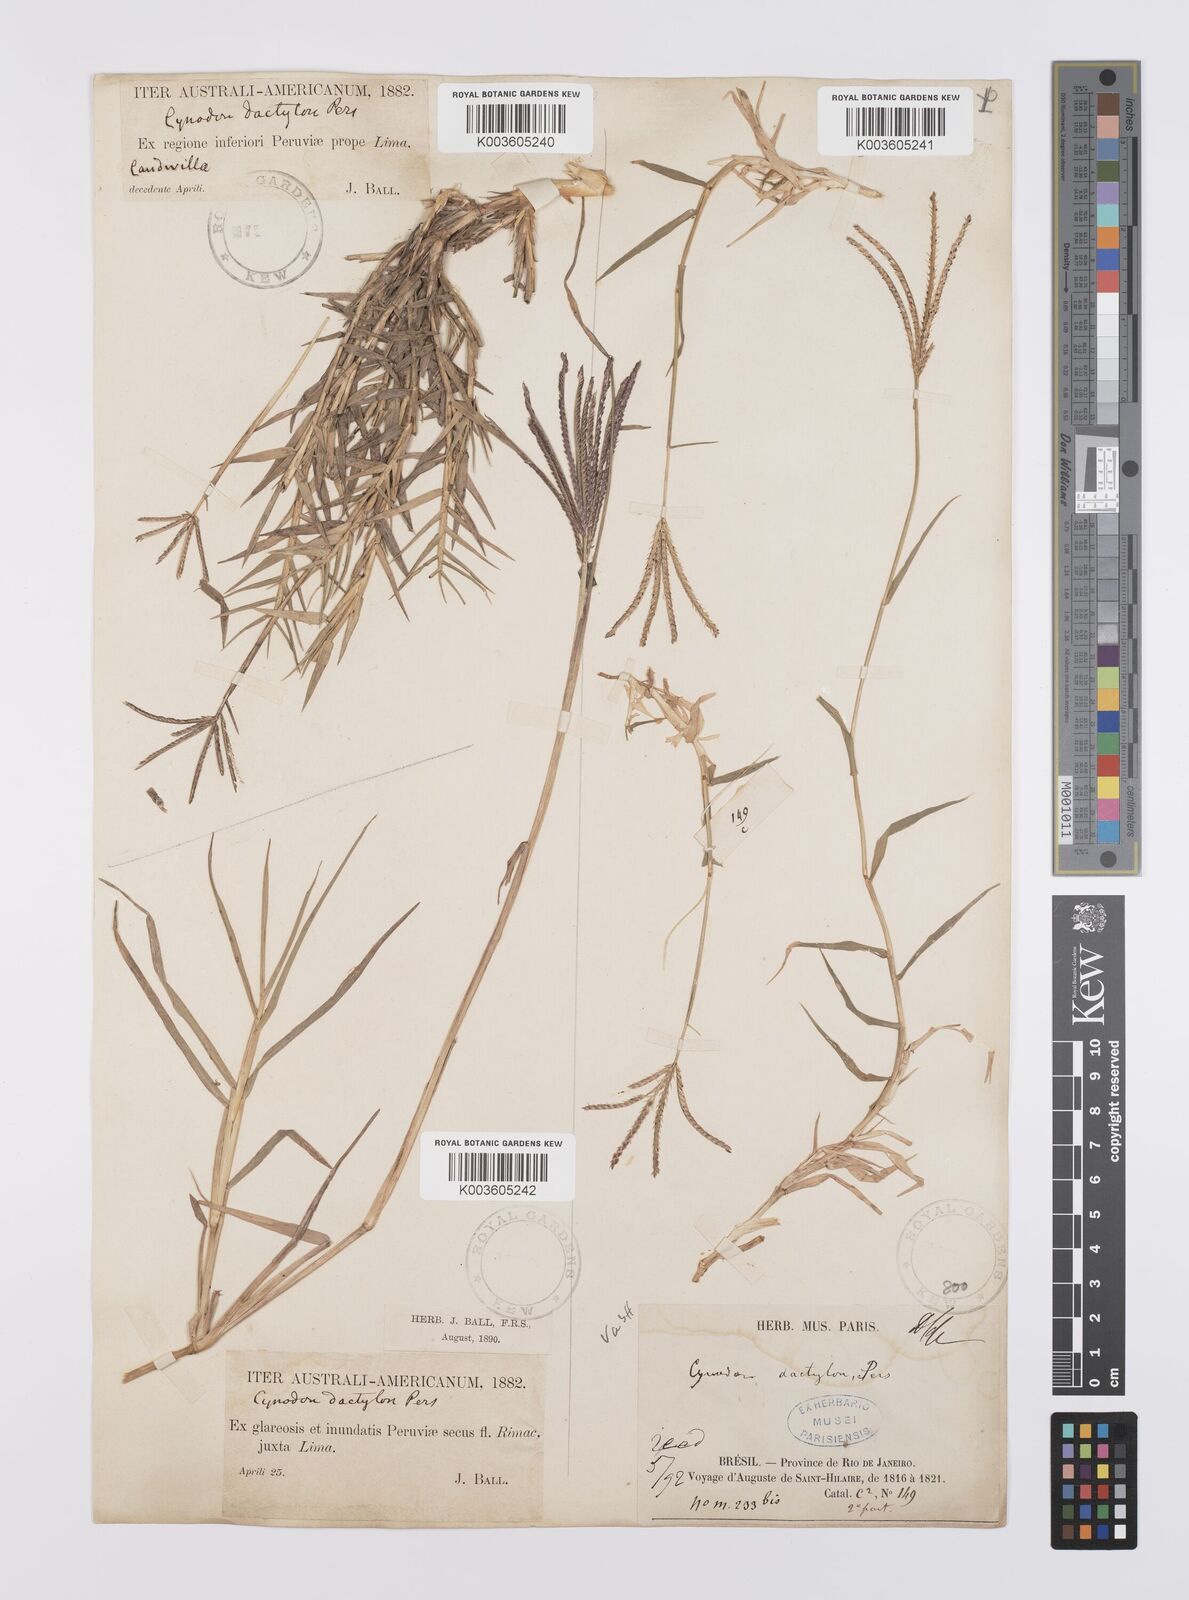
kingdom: Plantae
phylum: Tracheophyta
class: Liliopsida
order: Poales
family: Poaceae
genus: Cynodon
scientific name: Cynodon dactylon
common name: Bermuda grass
